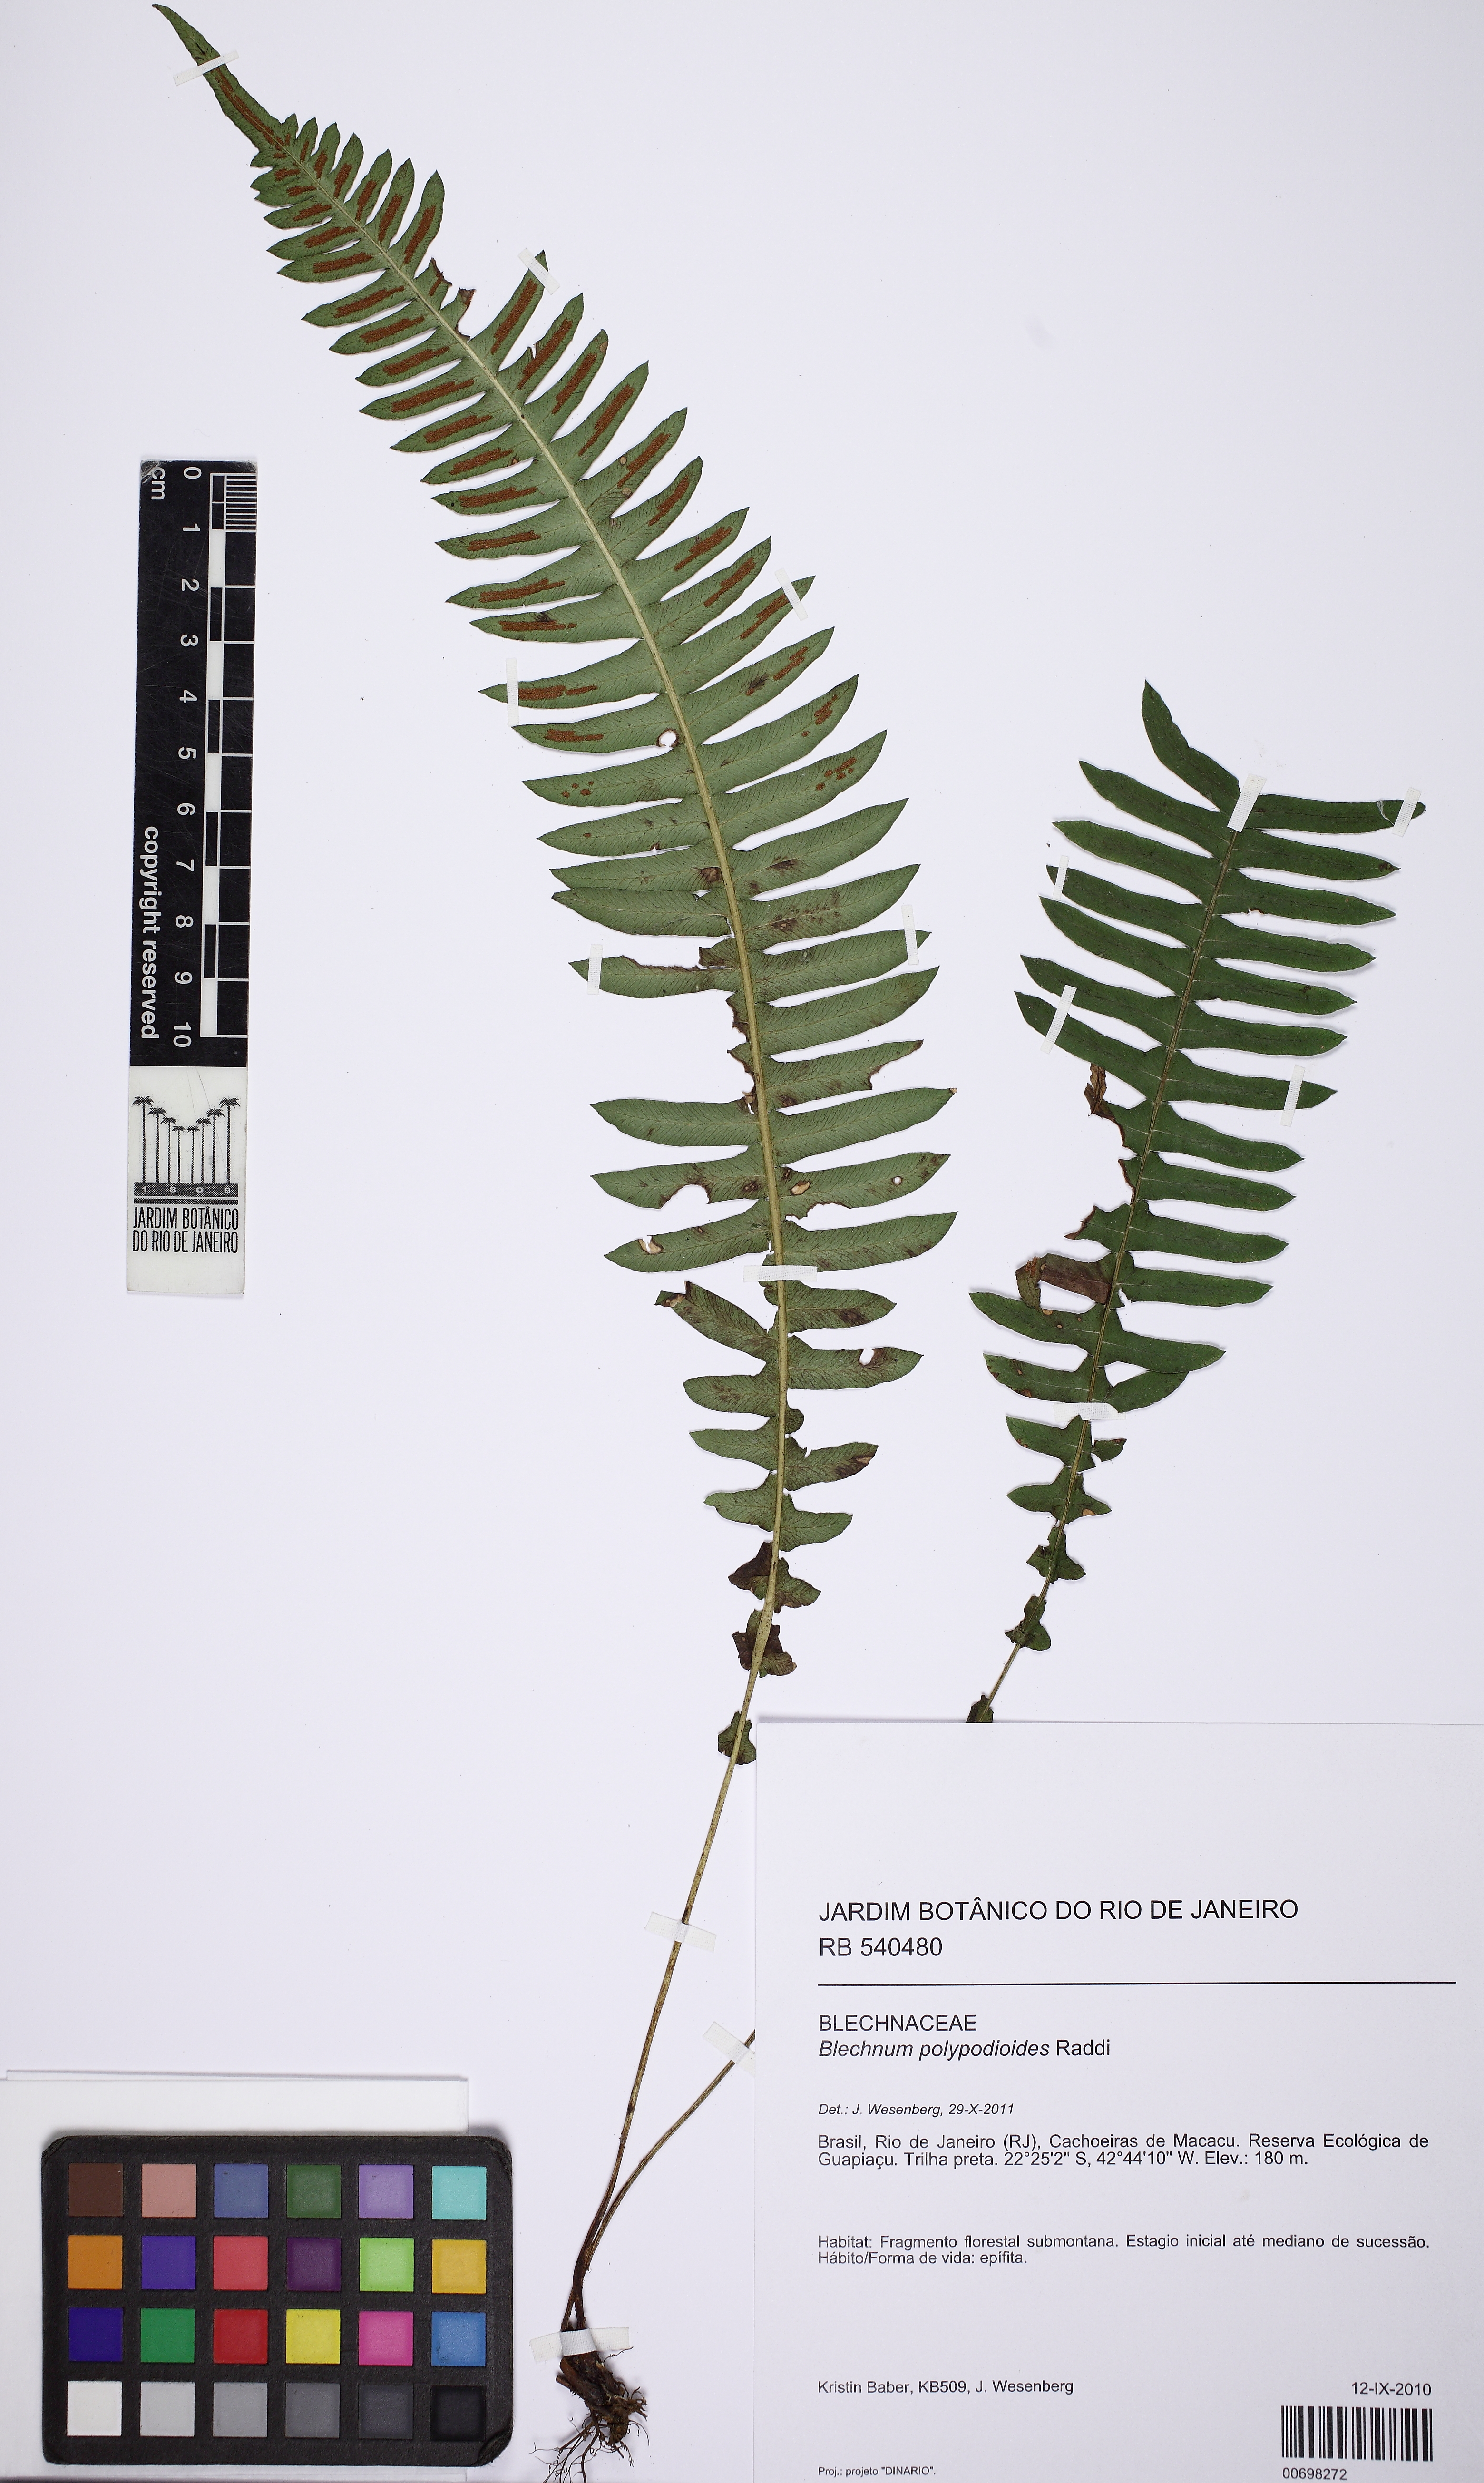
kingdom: Plantae
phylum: Tracheophyta
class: Polypodiopsida
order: Polypodiales
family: Blechnaceae
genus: Blechnum
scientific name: Blechnum polypodioides
